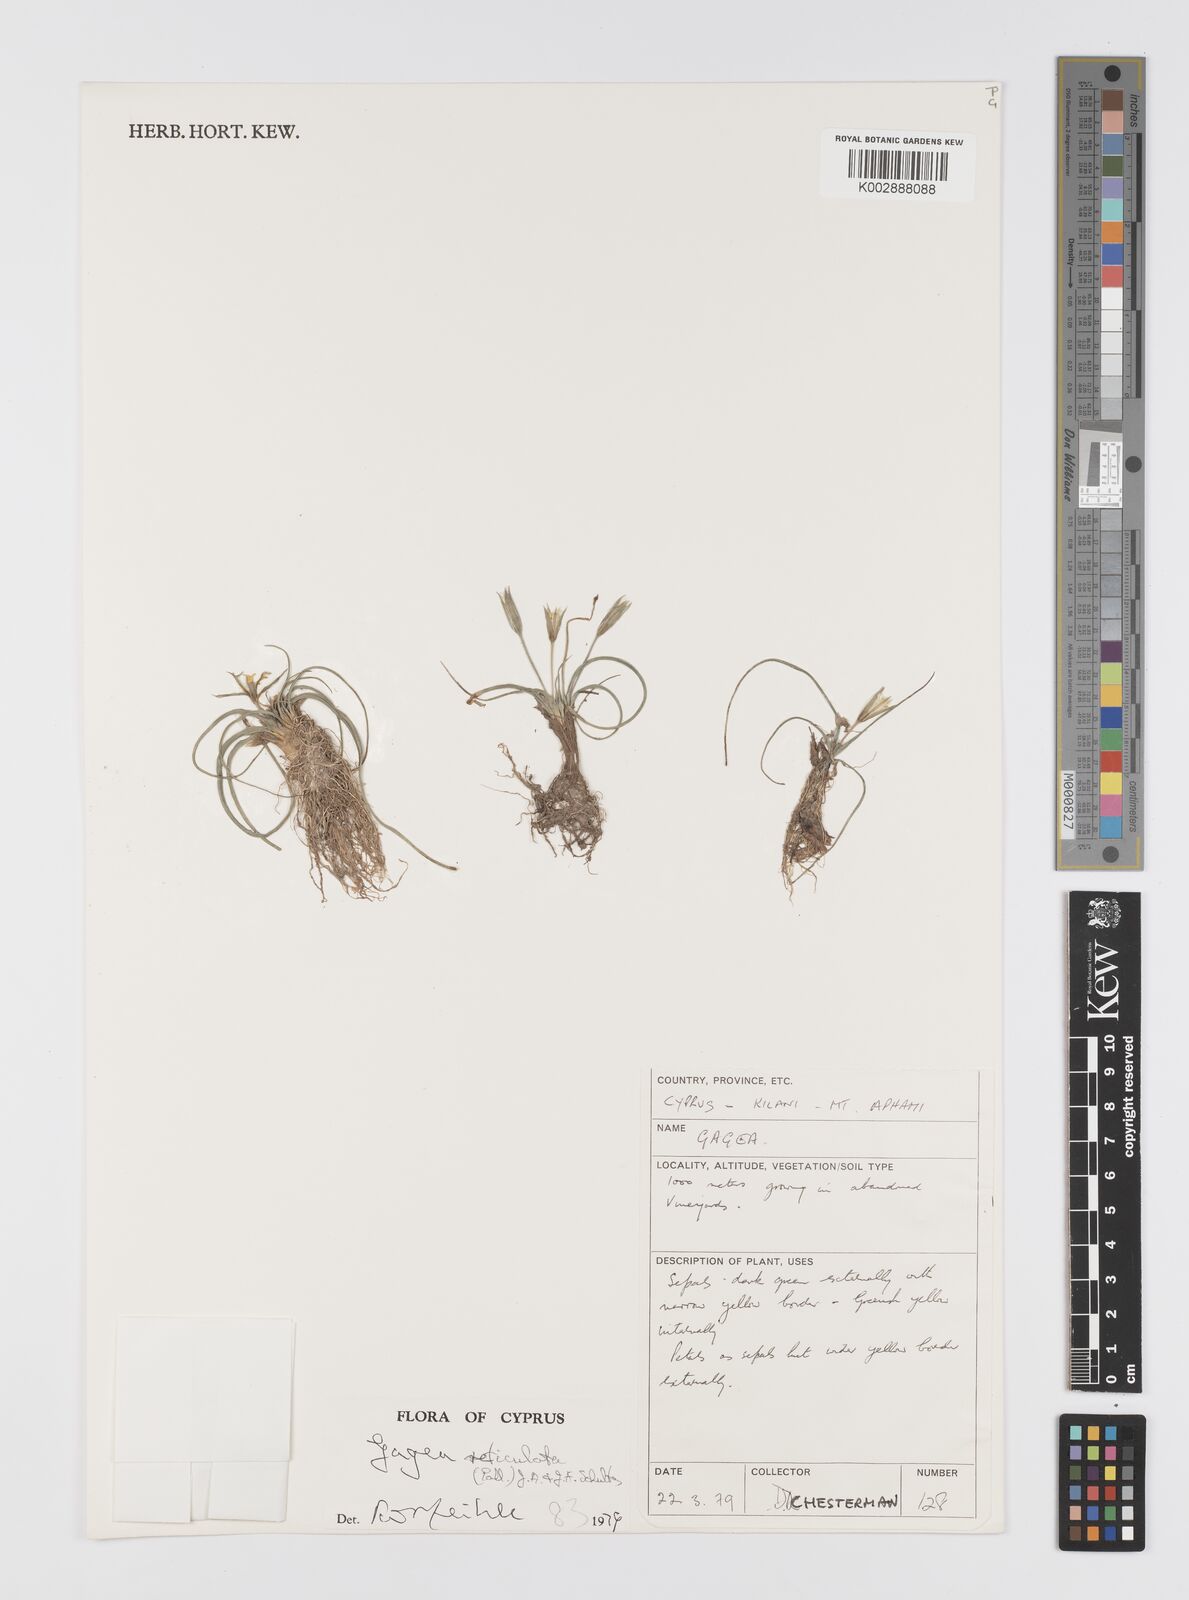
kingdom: Plantae
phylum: Tracheophyta
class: Liliopsida
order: Liliales
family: Liliaceae
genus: Gagea
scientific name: Gagea reticulata
